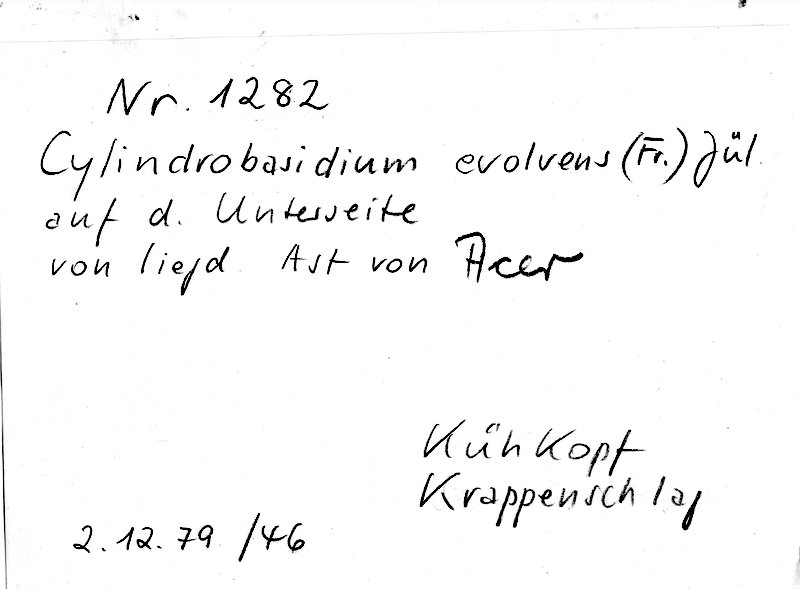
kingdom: Fungi
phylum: Basidiomycota
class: Agaricomycetes
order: Agaricales
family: Physalacriaceae
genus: Cylindrobasidium
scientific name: Cylindrobasidium evolvens
